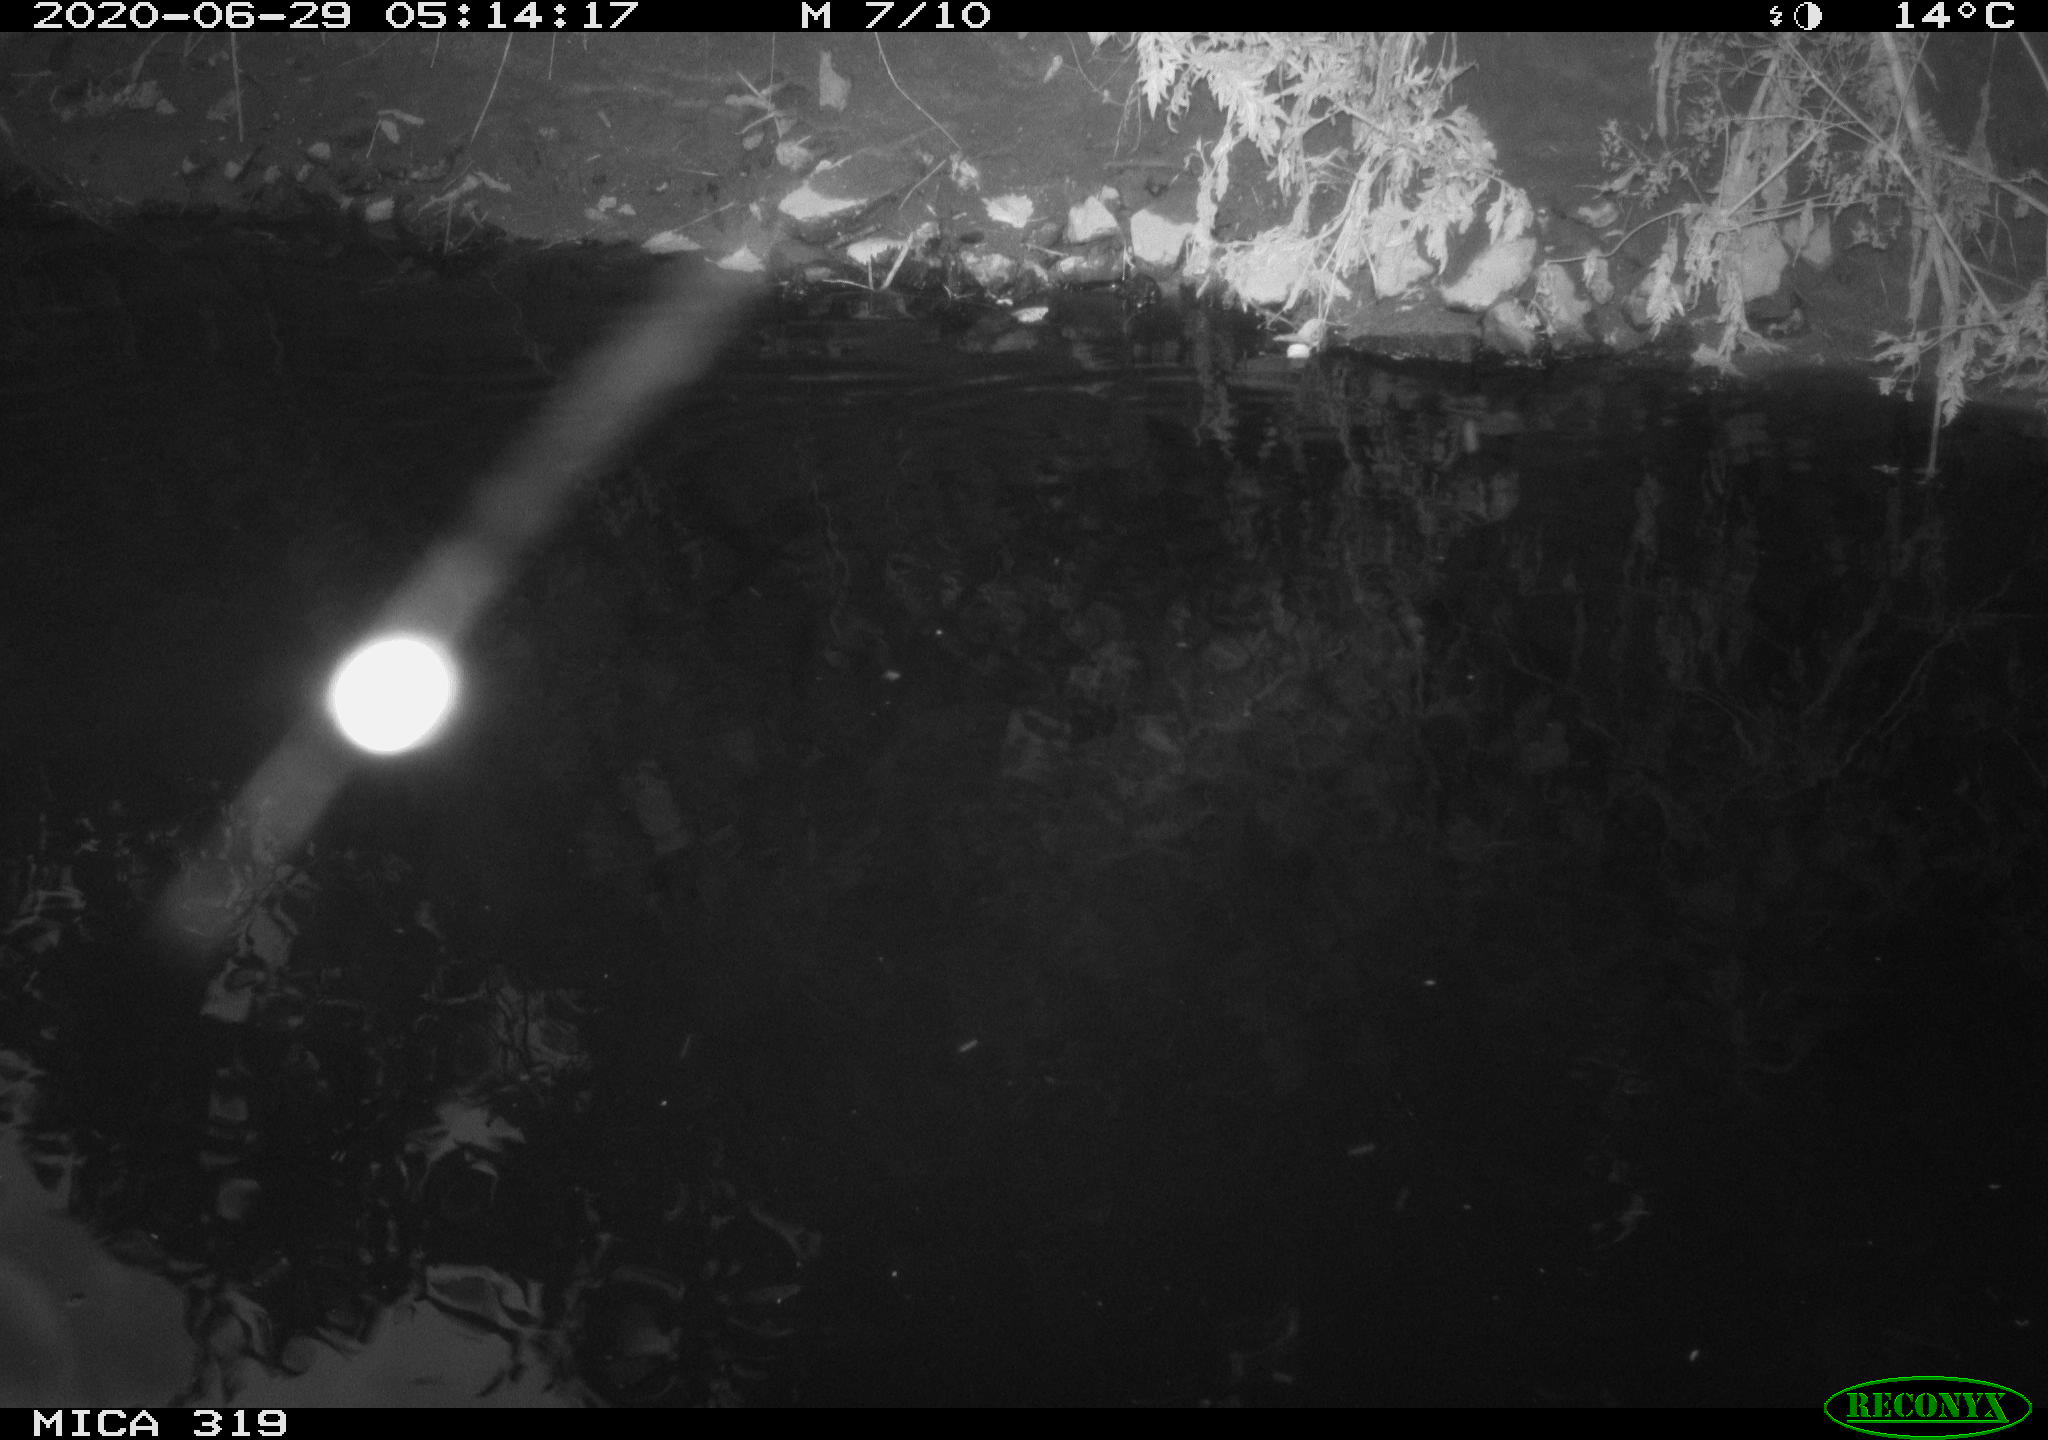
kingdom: Animalia
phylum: Chordata
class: Aves
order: Anseriformes
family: Anatidae
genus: Anas
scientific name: Anas platyrhynchos
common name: Mallard
